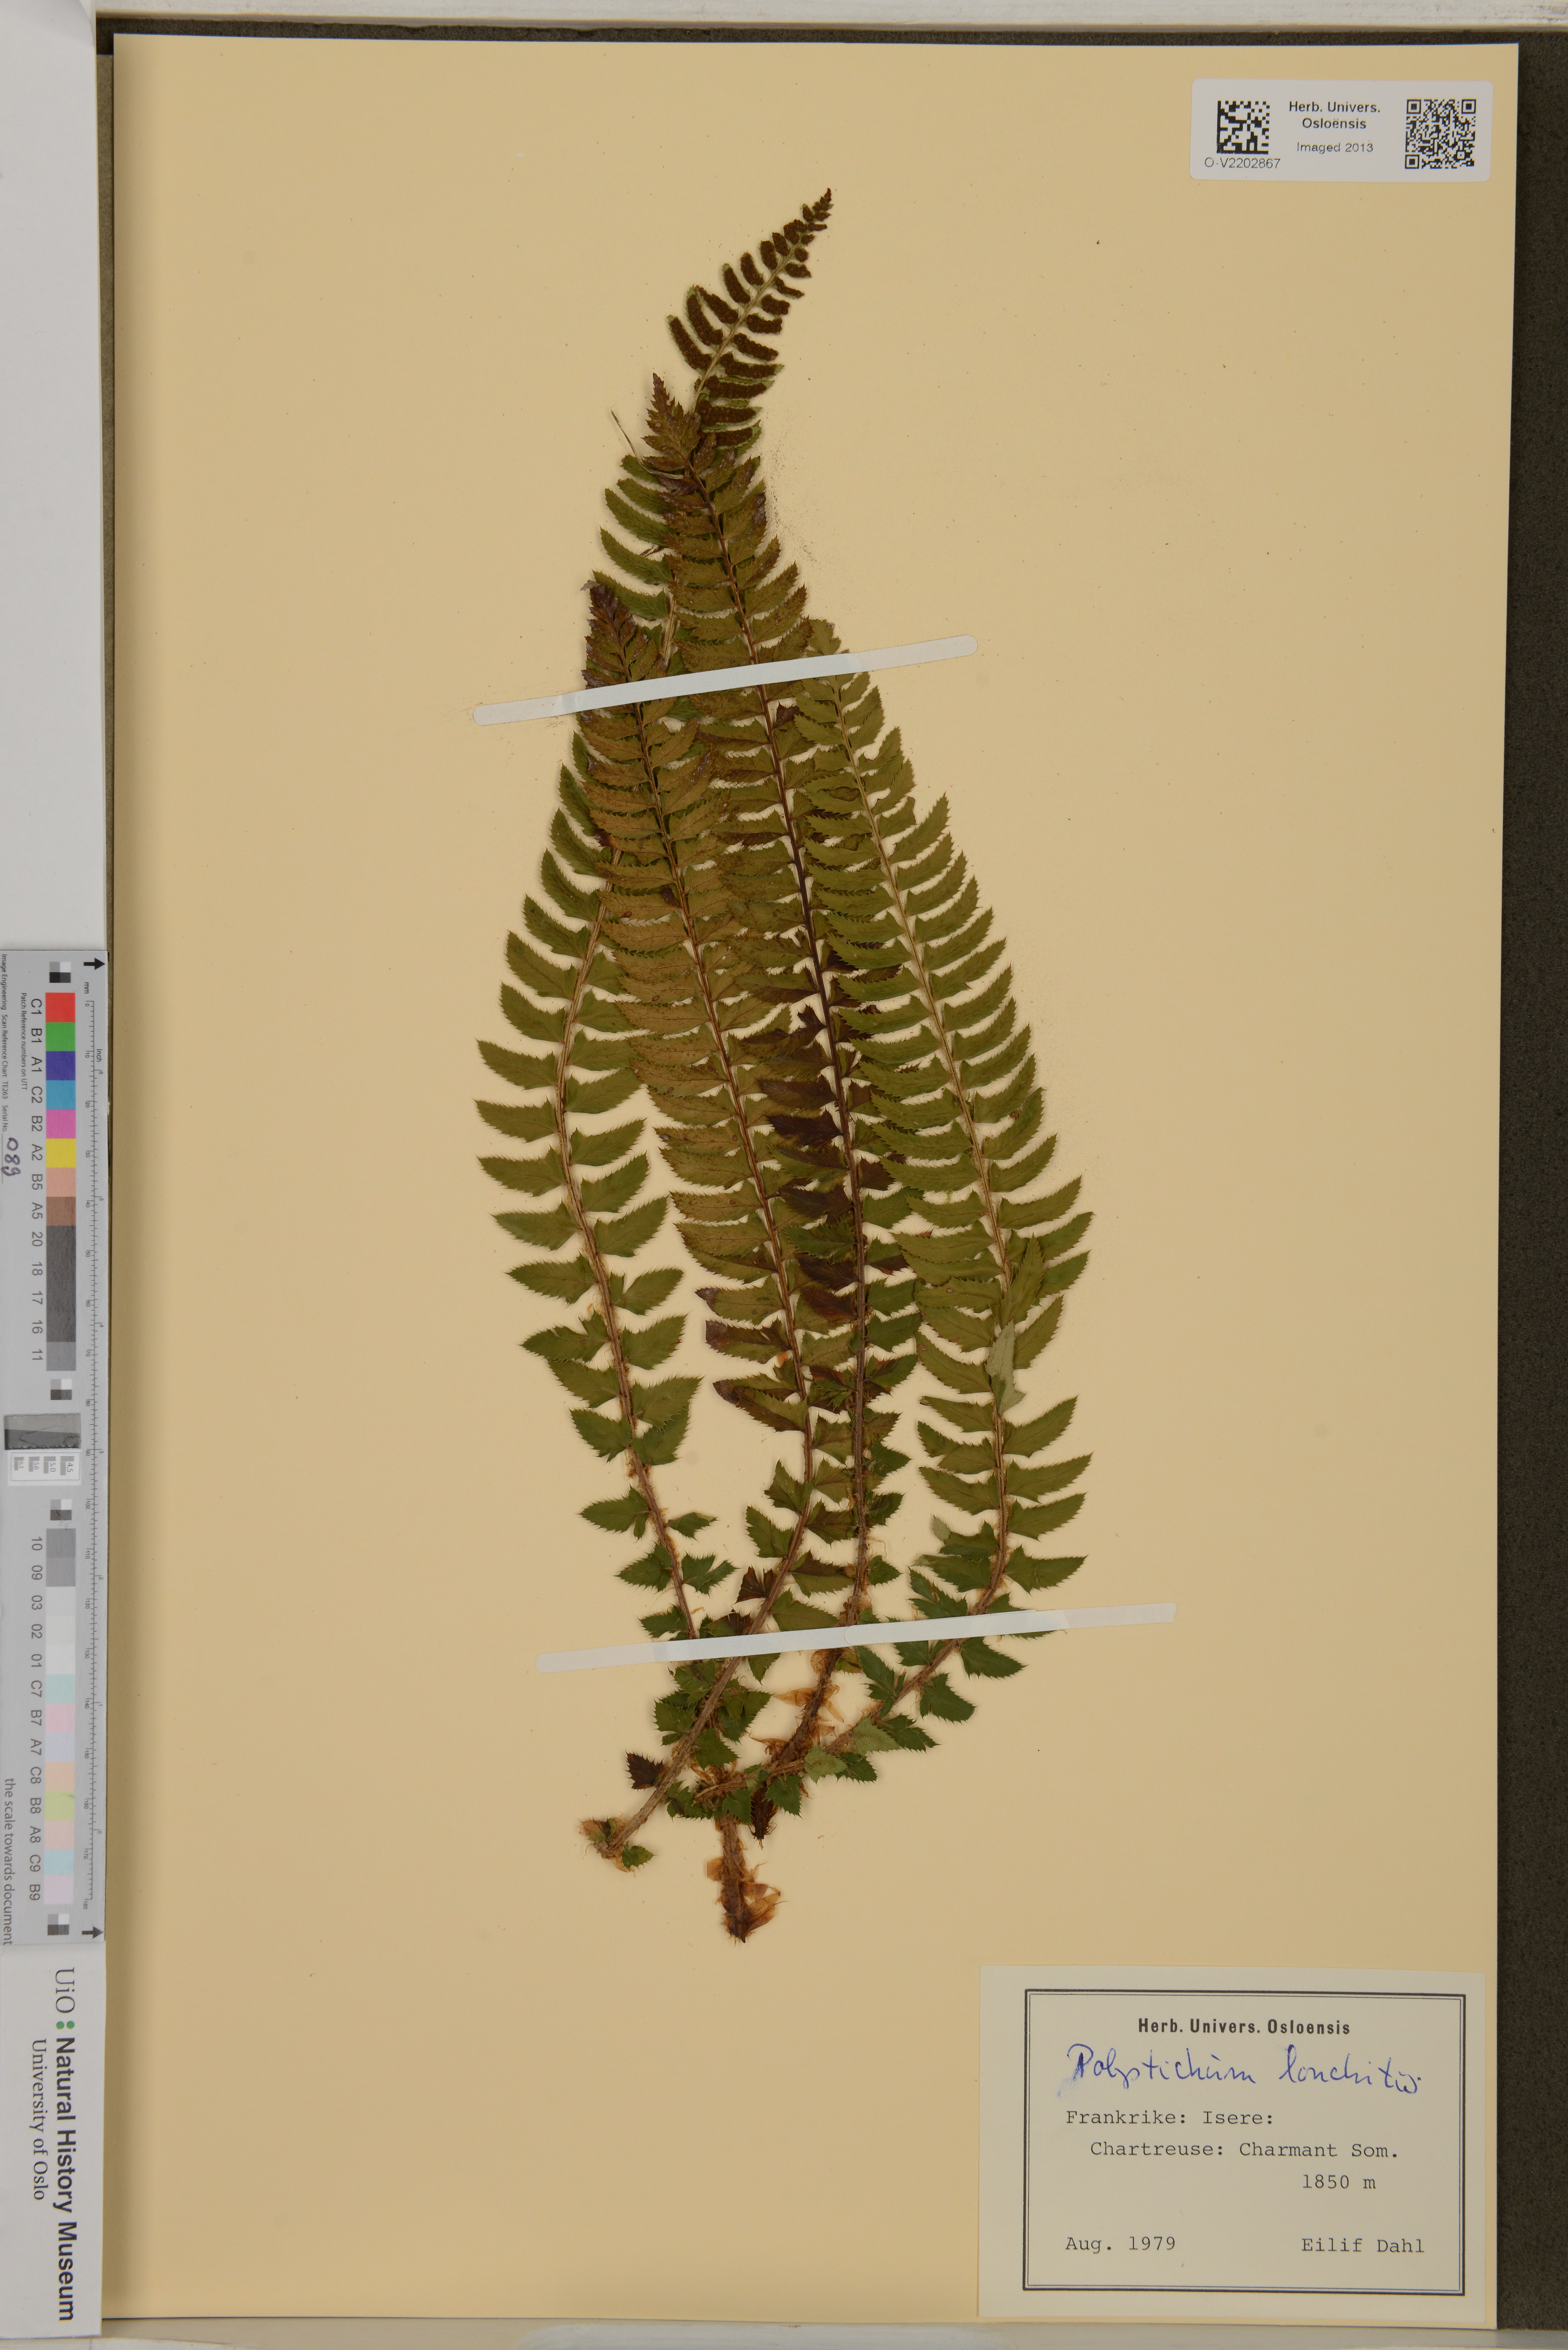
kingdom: Plantae
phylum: Tracheophyta
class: Polypodiopsida
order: Polypodiales
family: Dryopteridaceae
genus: Polystichum
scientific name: Polystichum lonchitis
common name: Holly fern
